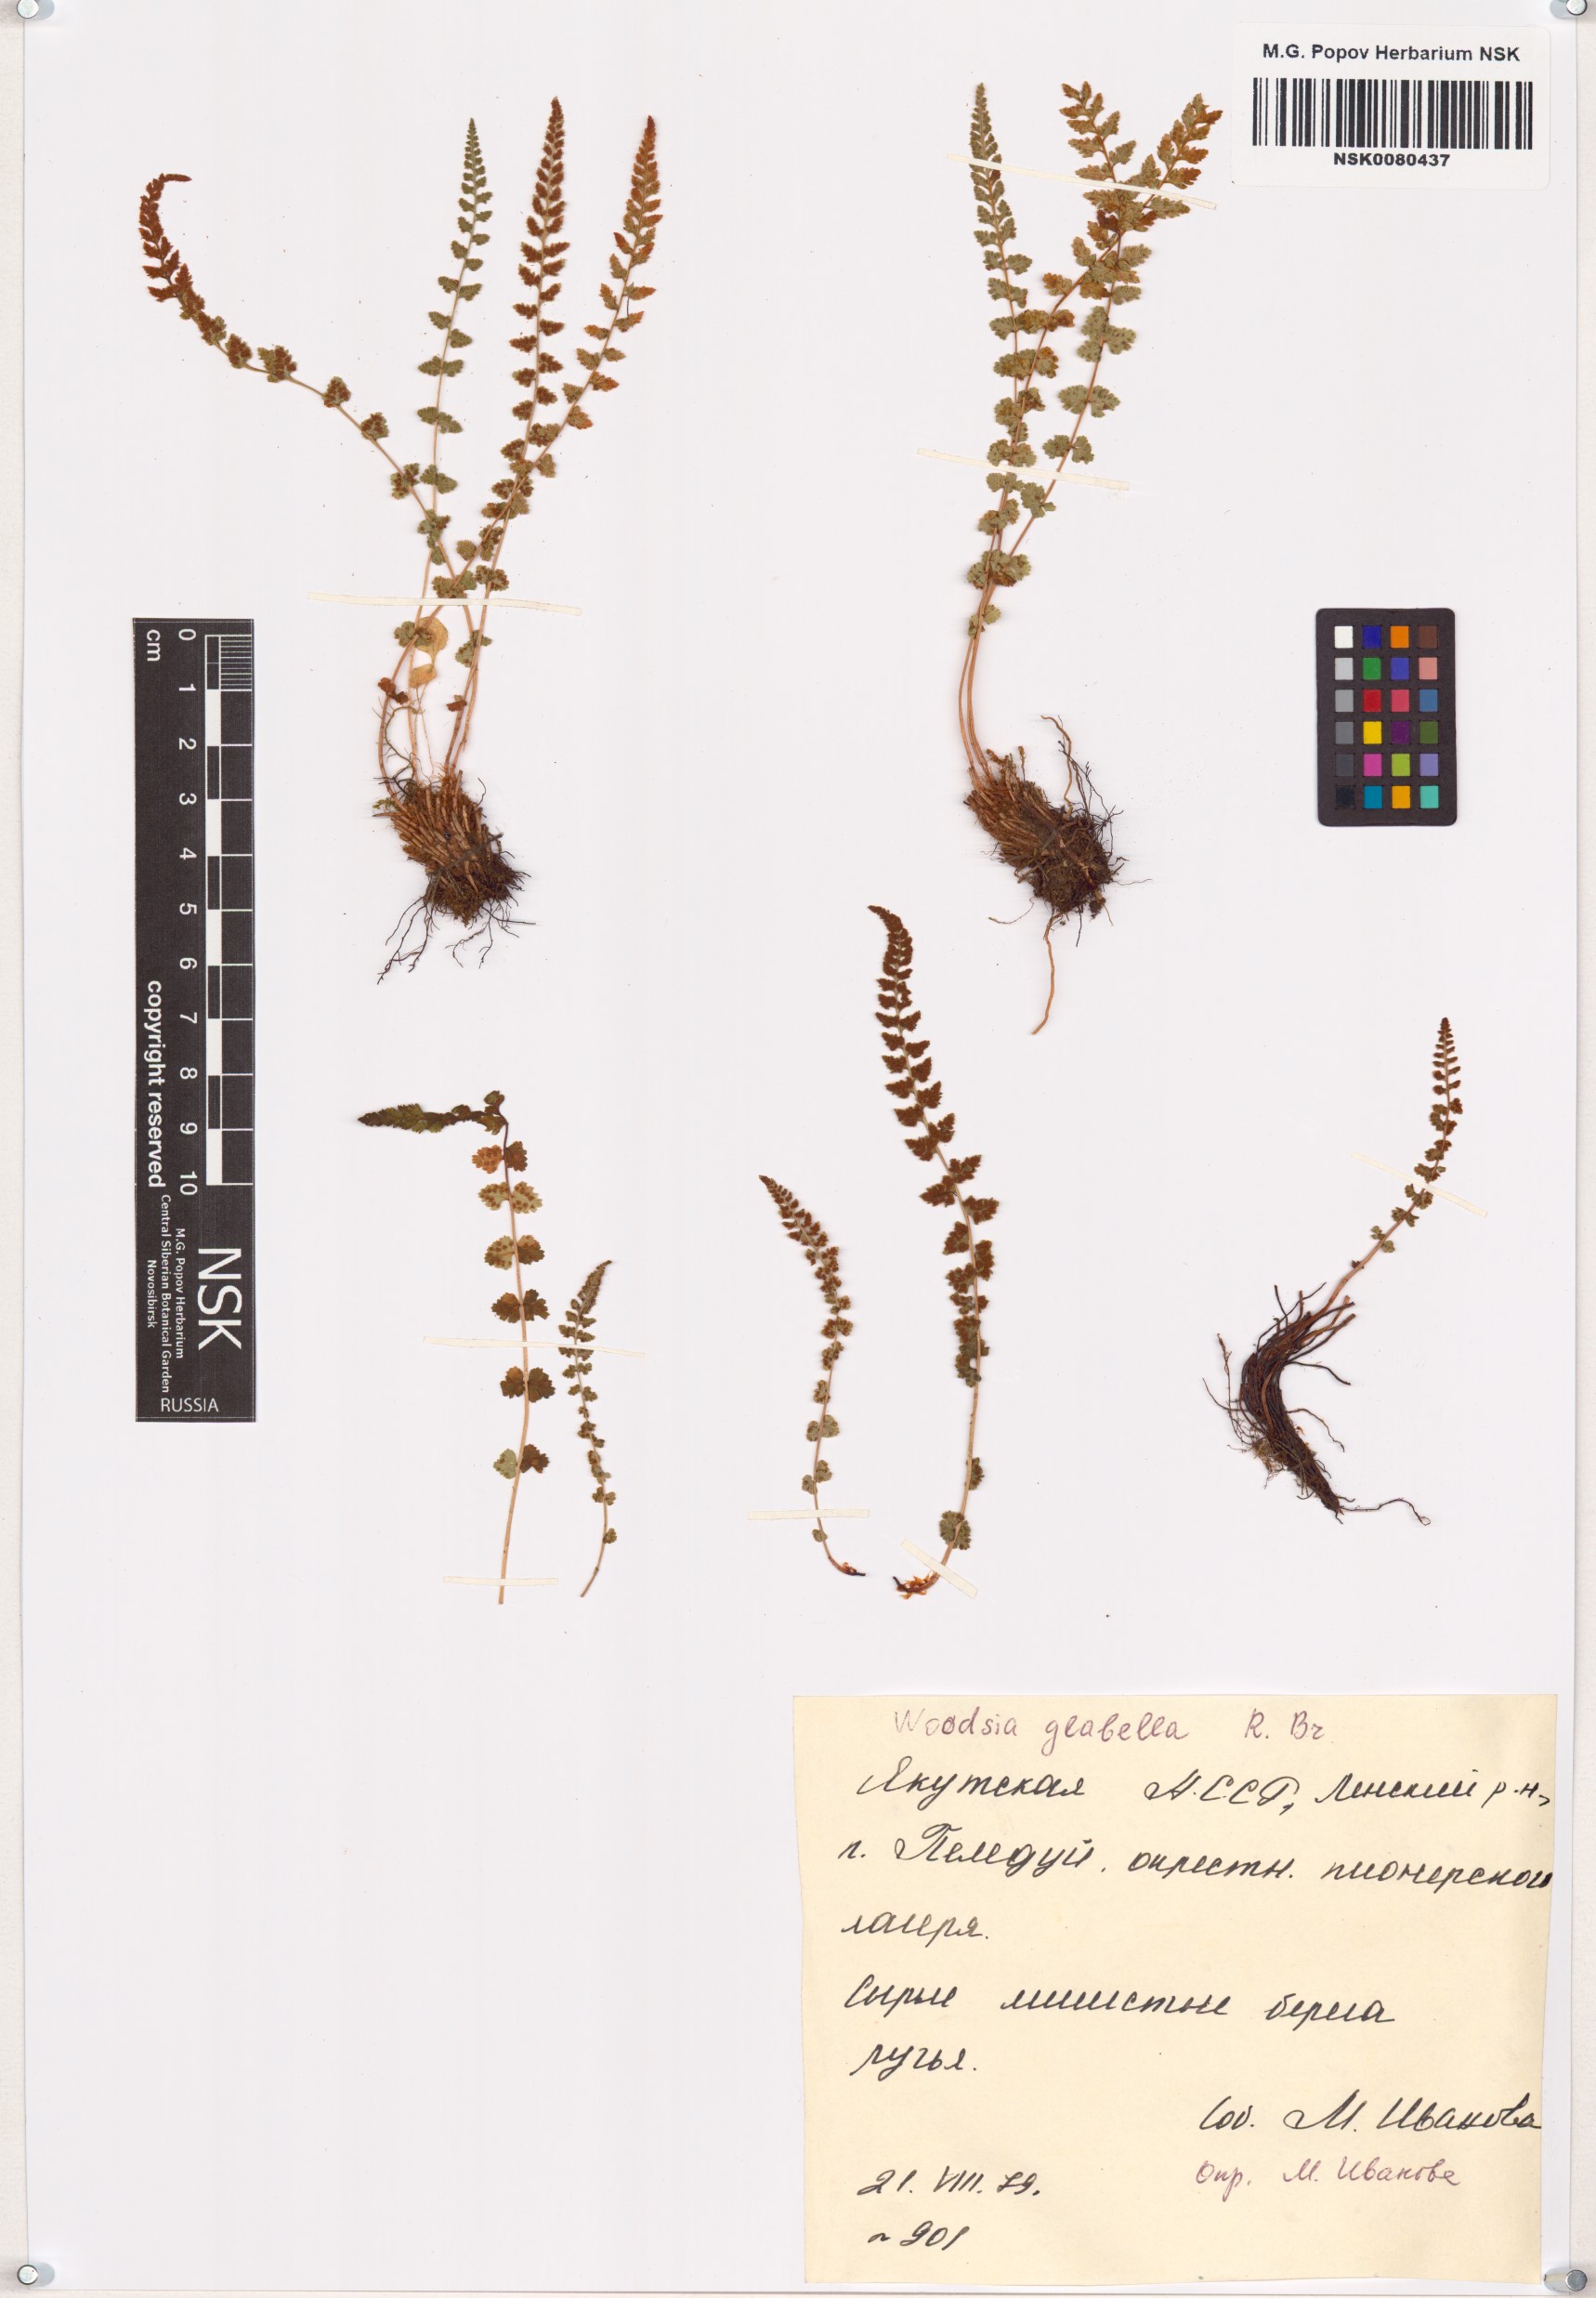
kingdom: Plantae
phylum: Tracheophyta
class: Polypodiopsida
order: Polypodiales
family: Woodsiaceae
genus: Woodsia
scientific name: Woodsia glabella
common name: Smooth woodsia
